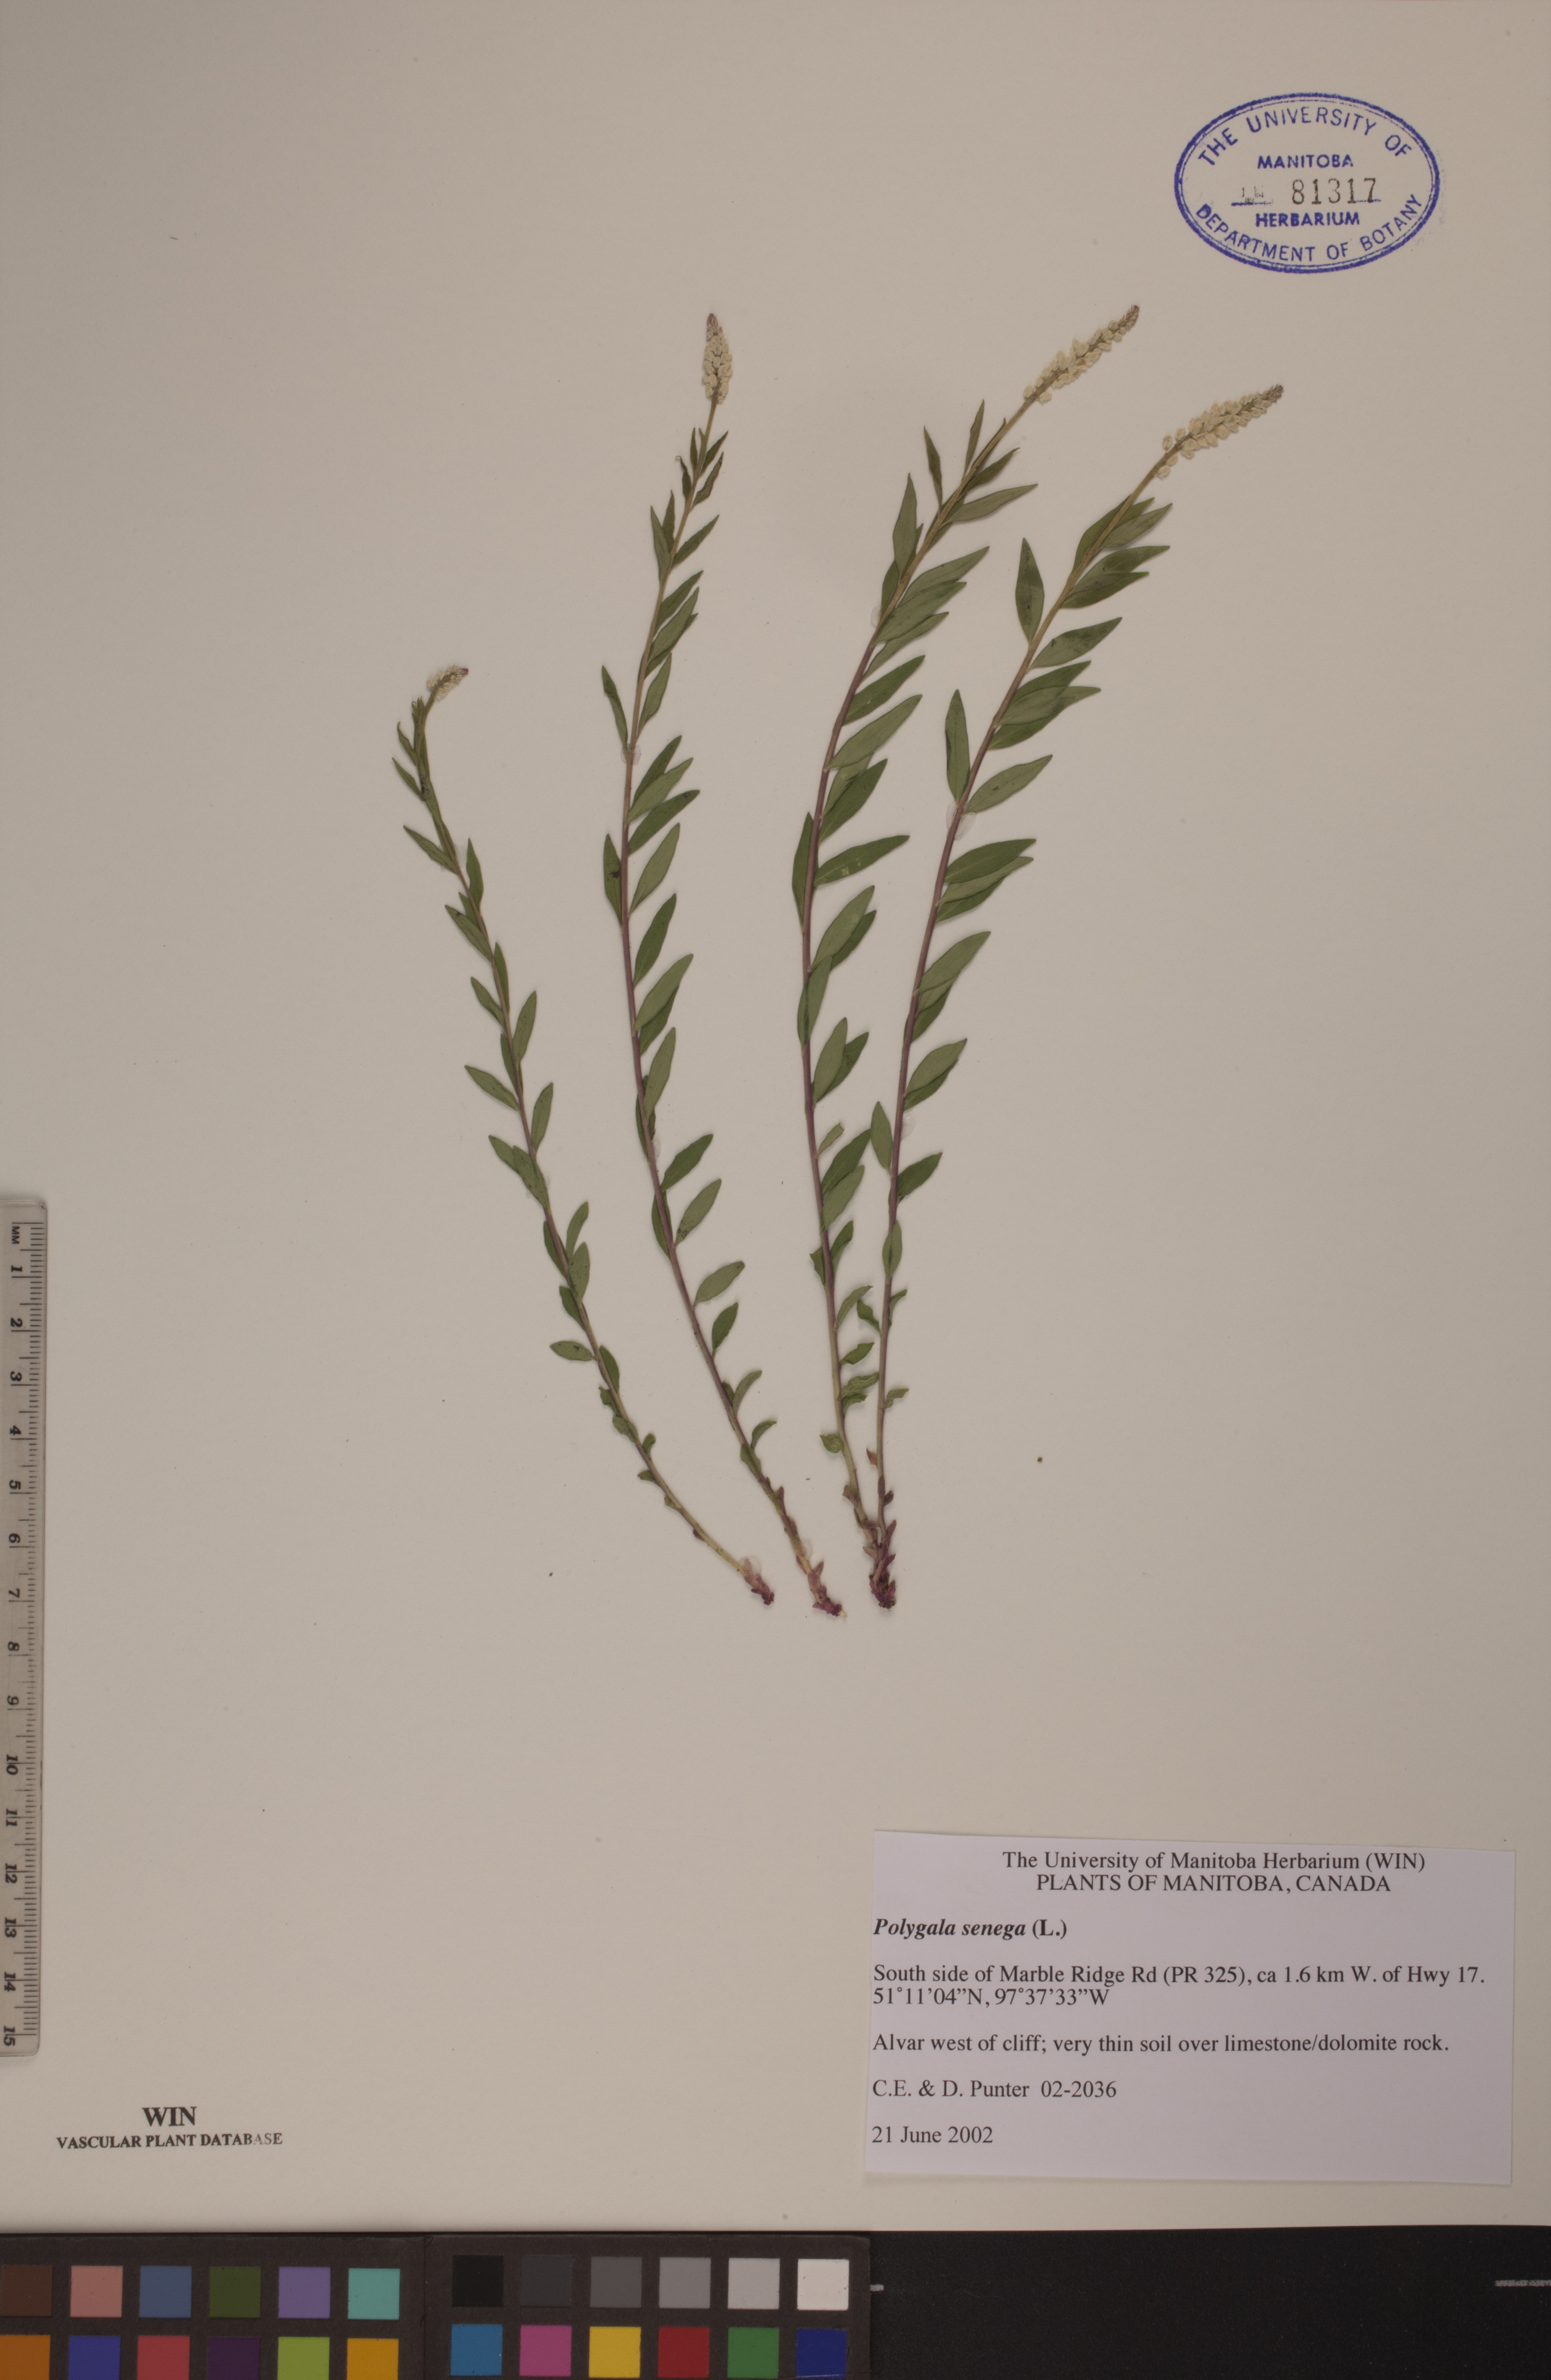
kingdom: Plantae
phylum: Tracheophyta
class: Magnoliopsida
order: Fabales
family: Polygalaceae
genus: Polygala
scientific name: Polygala senega
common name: Seneca snakeroot
